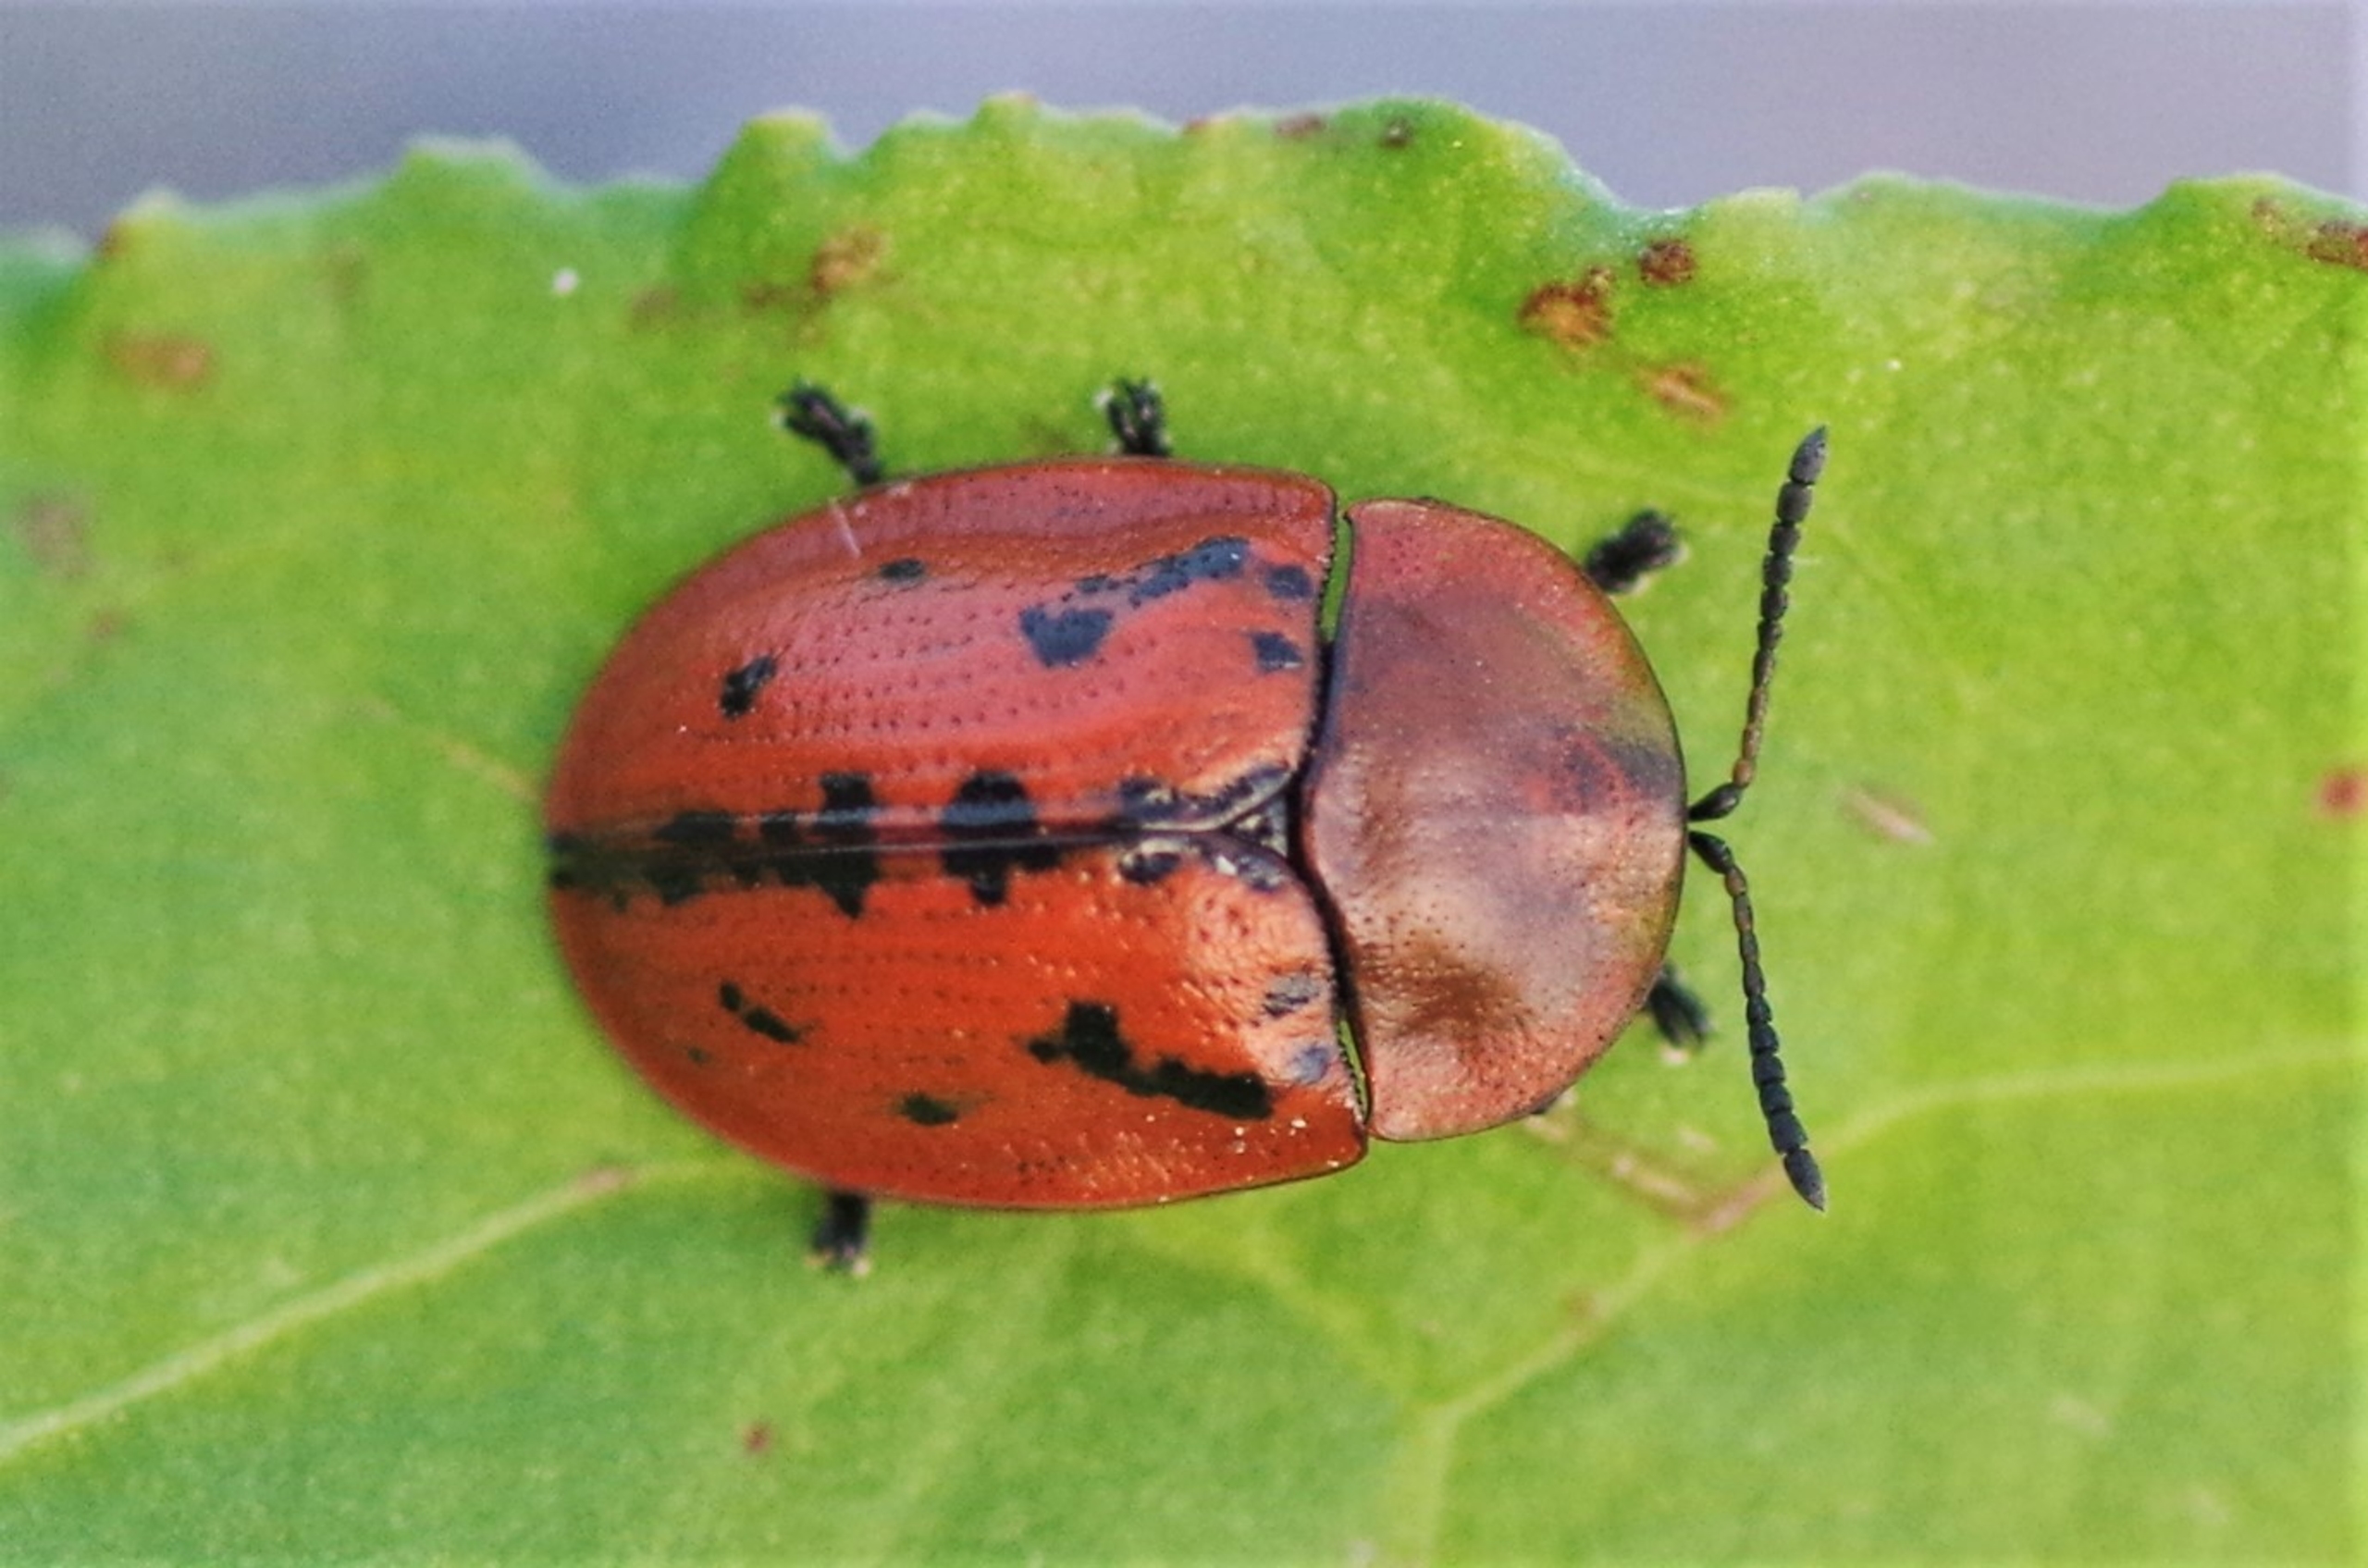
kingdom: Animalia
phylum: Arthropoda
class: Insecta
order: Coleoptera
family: Chrysomelidae
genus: Cassida
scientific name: Cassida murraea
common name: Stor alantskjoldbille
